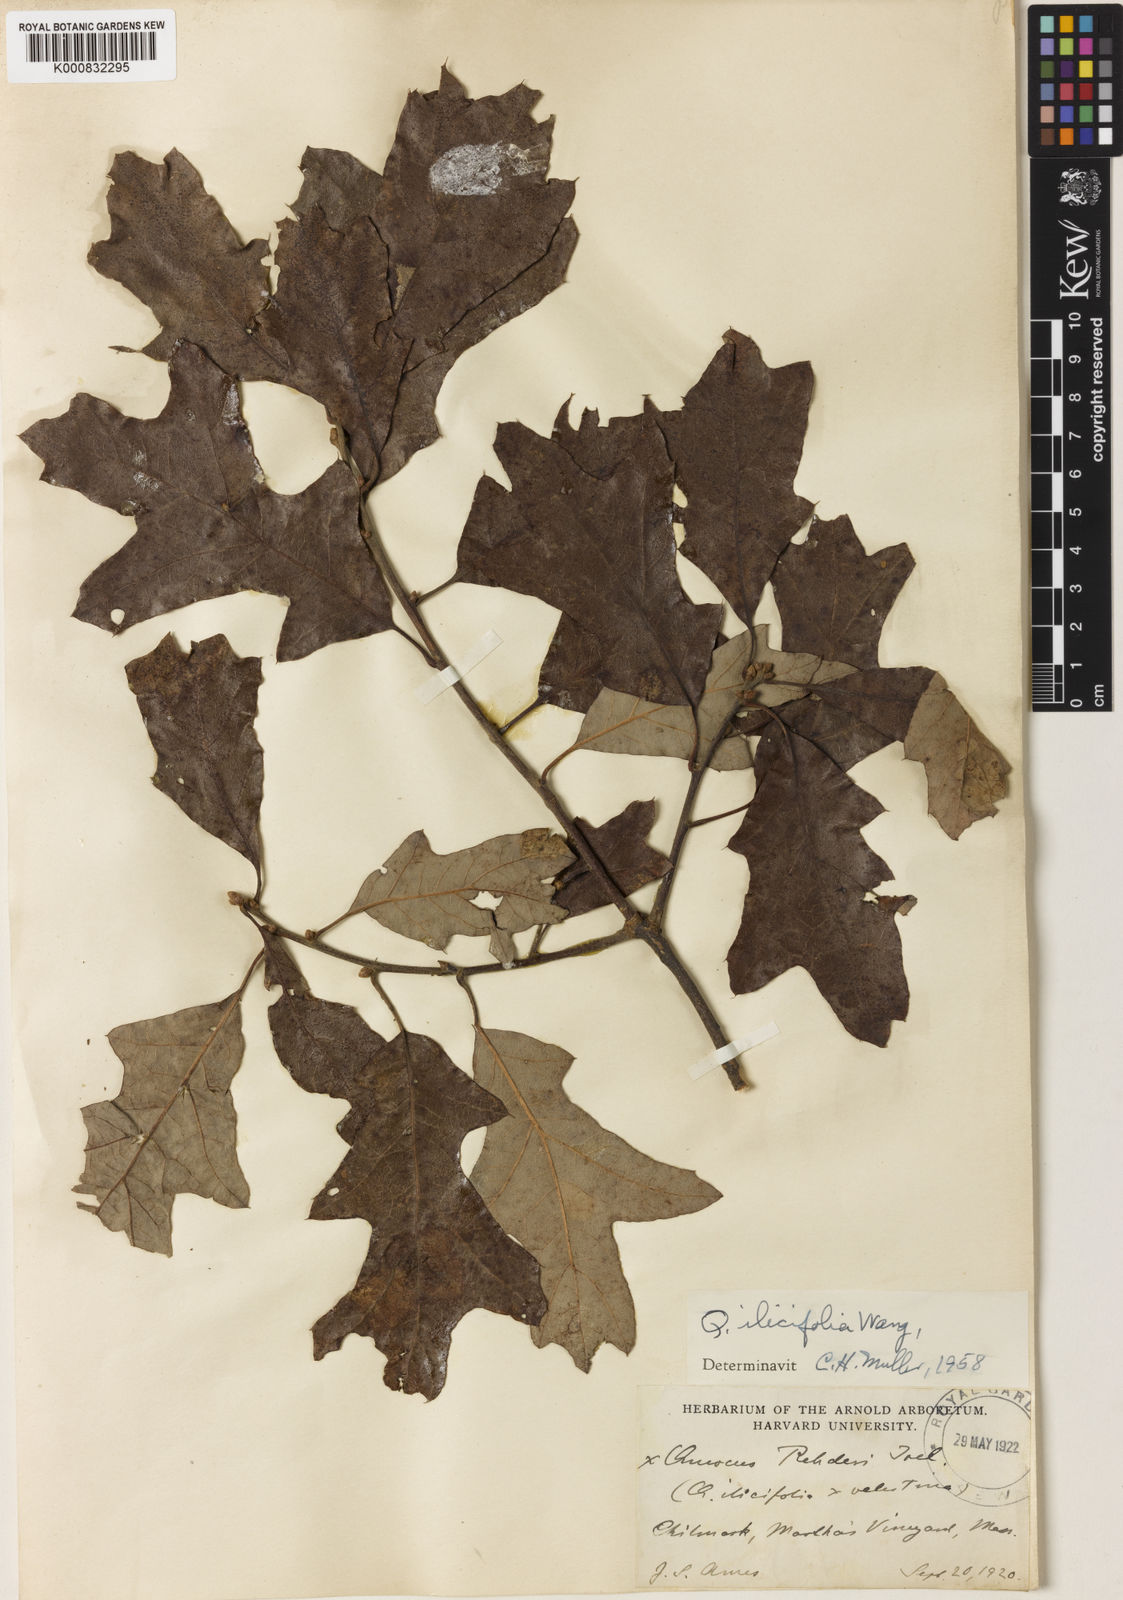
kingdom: Plantae
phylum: Tracheophyta
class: Magnoliopsida
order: Fagales
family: Fagaceae
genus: Quercus
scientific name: Quercus ilicifolia
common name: Bear oak
